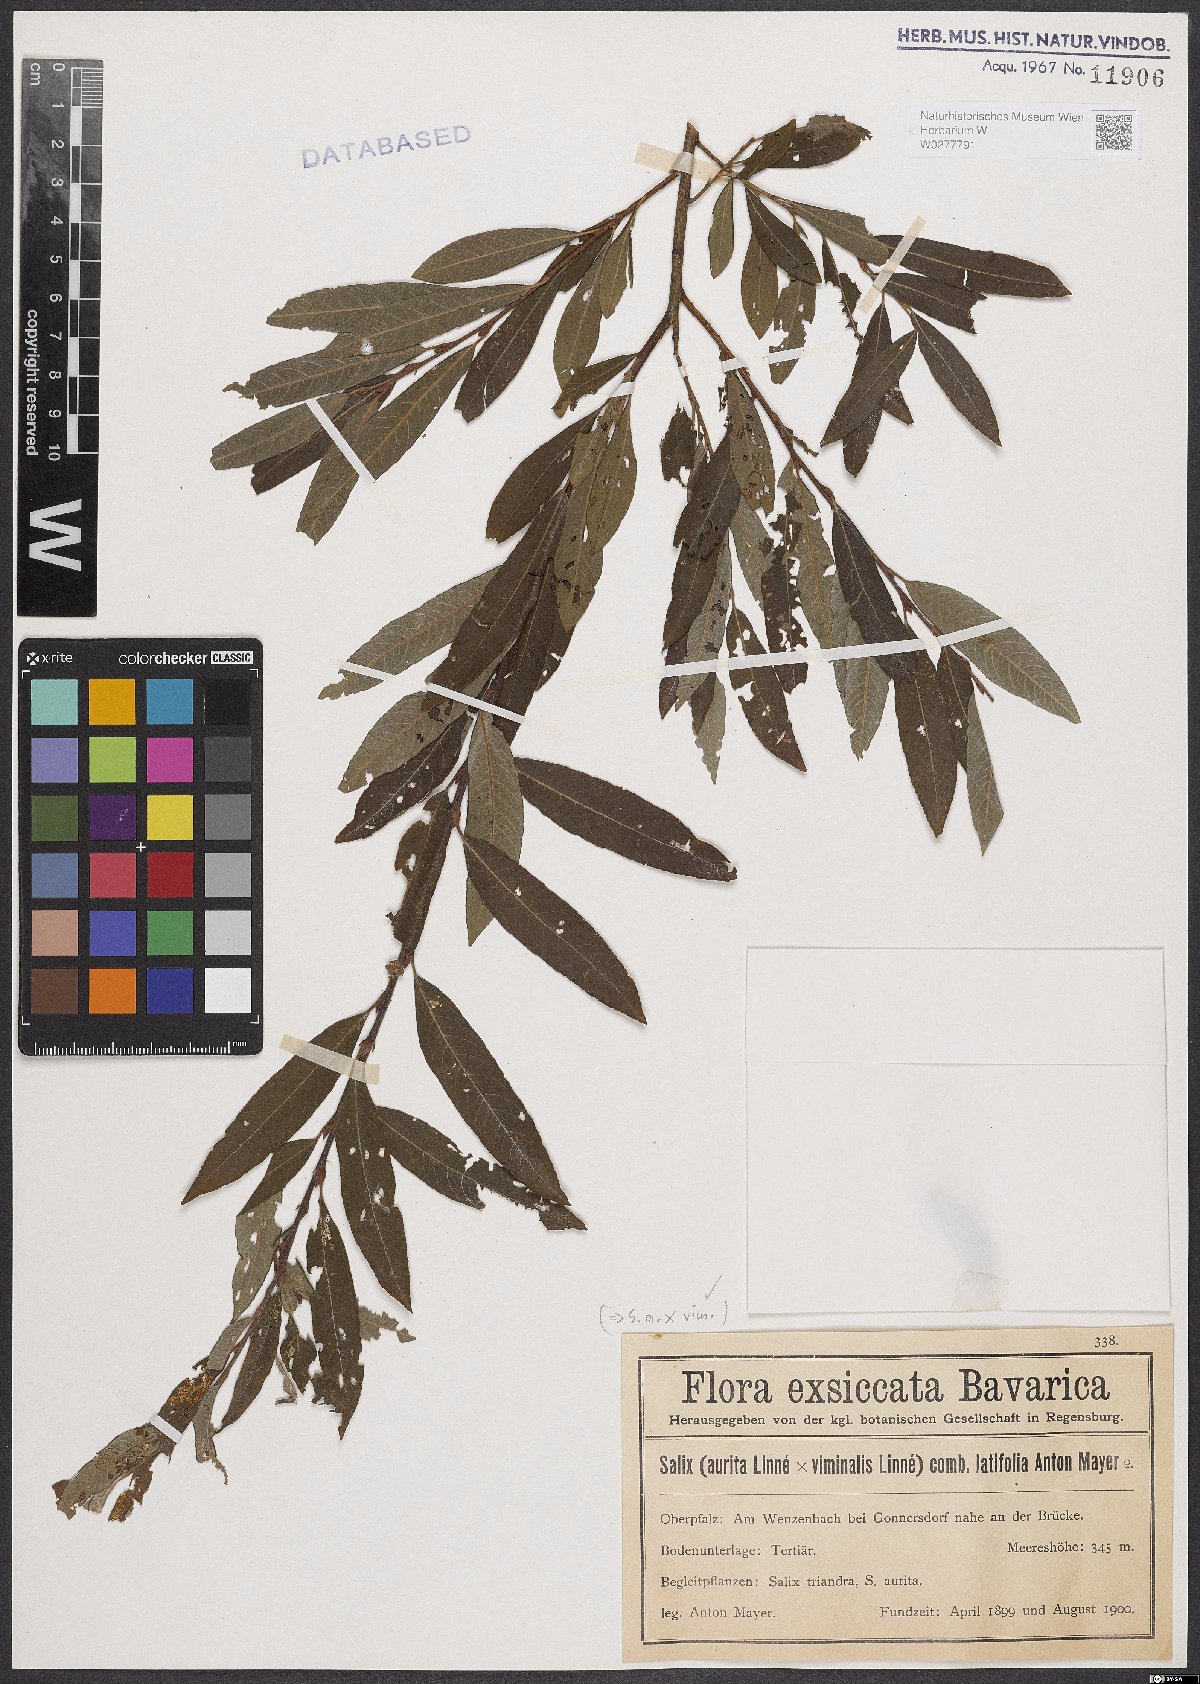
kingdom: Plantae
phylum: Tracheophyta
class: Magnoliopsida
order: Malpighiales
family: Salicaceae
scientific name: Salicaceae
